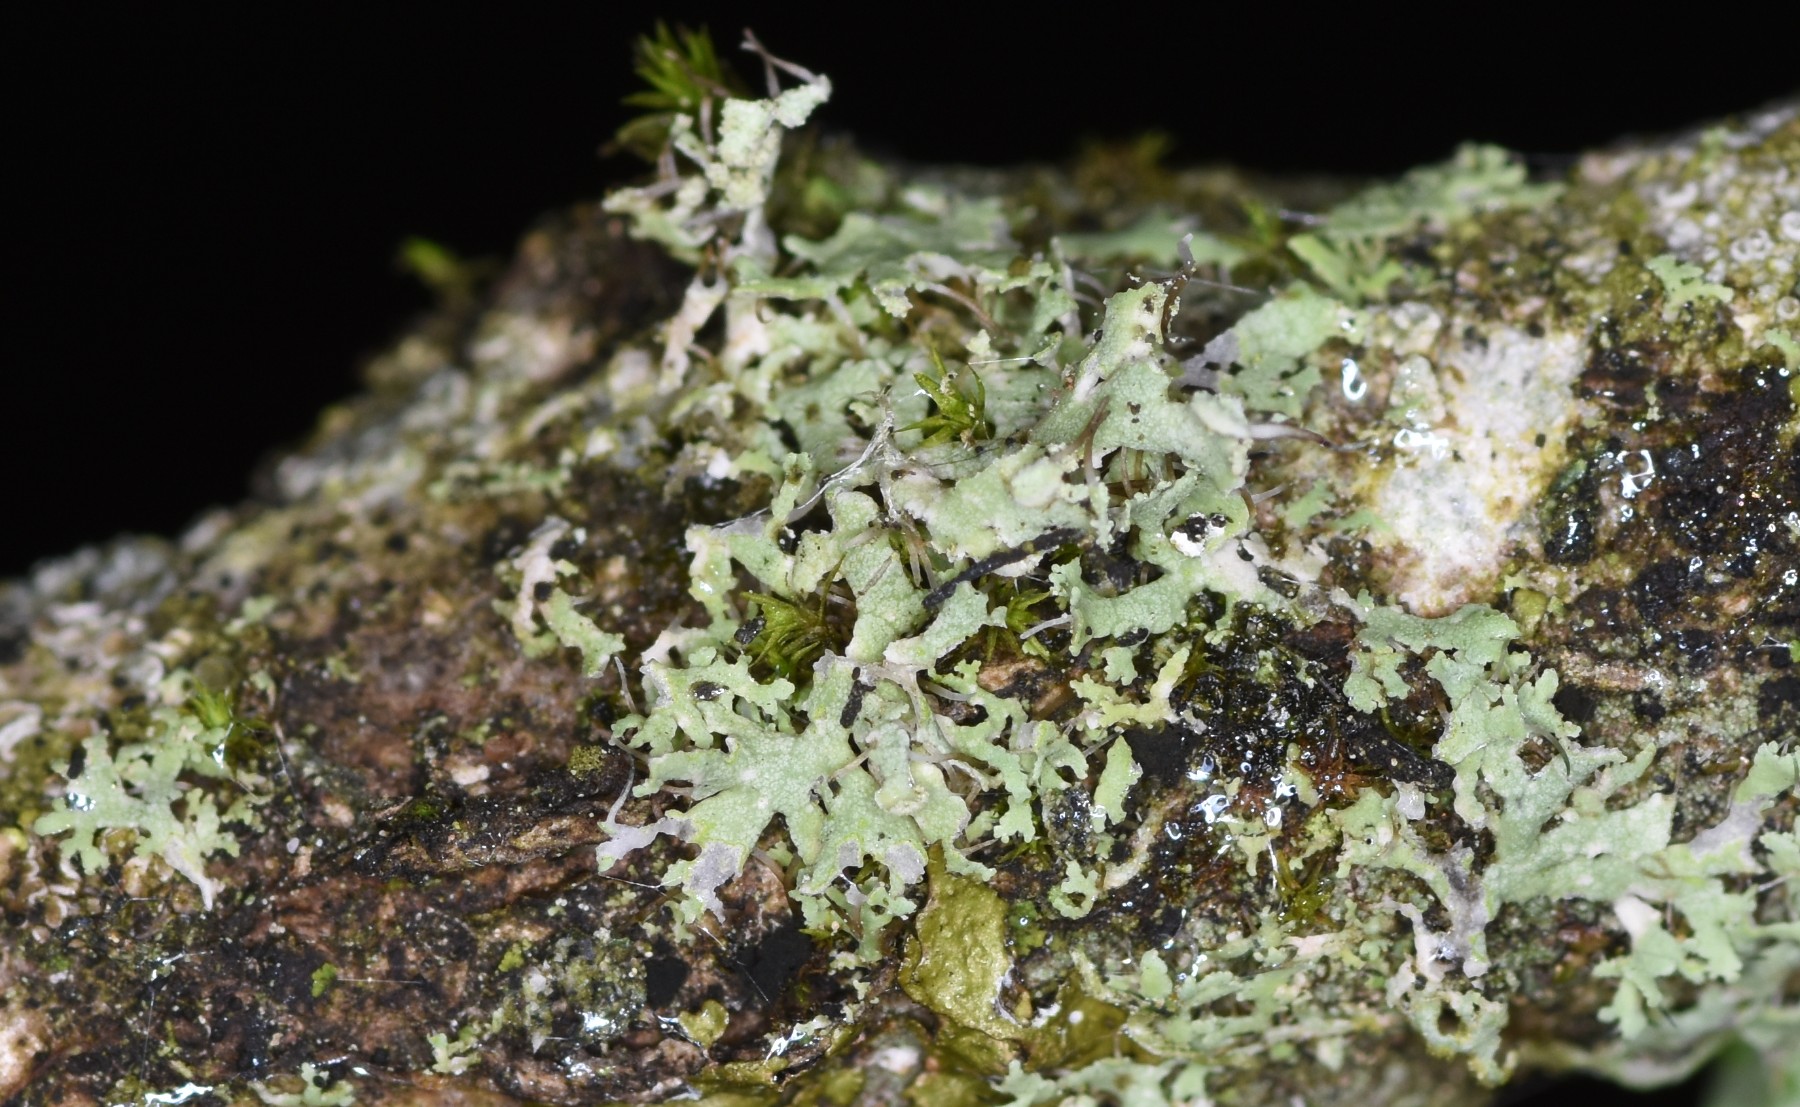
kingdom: Fungi
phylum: Ascomycota
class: Lecanoromycetes
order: Caliciales
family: Physciaceae
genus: Physcia
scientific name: Physcia tenella
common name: spæd rosetlav
